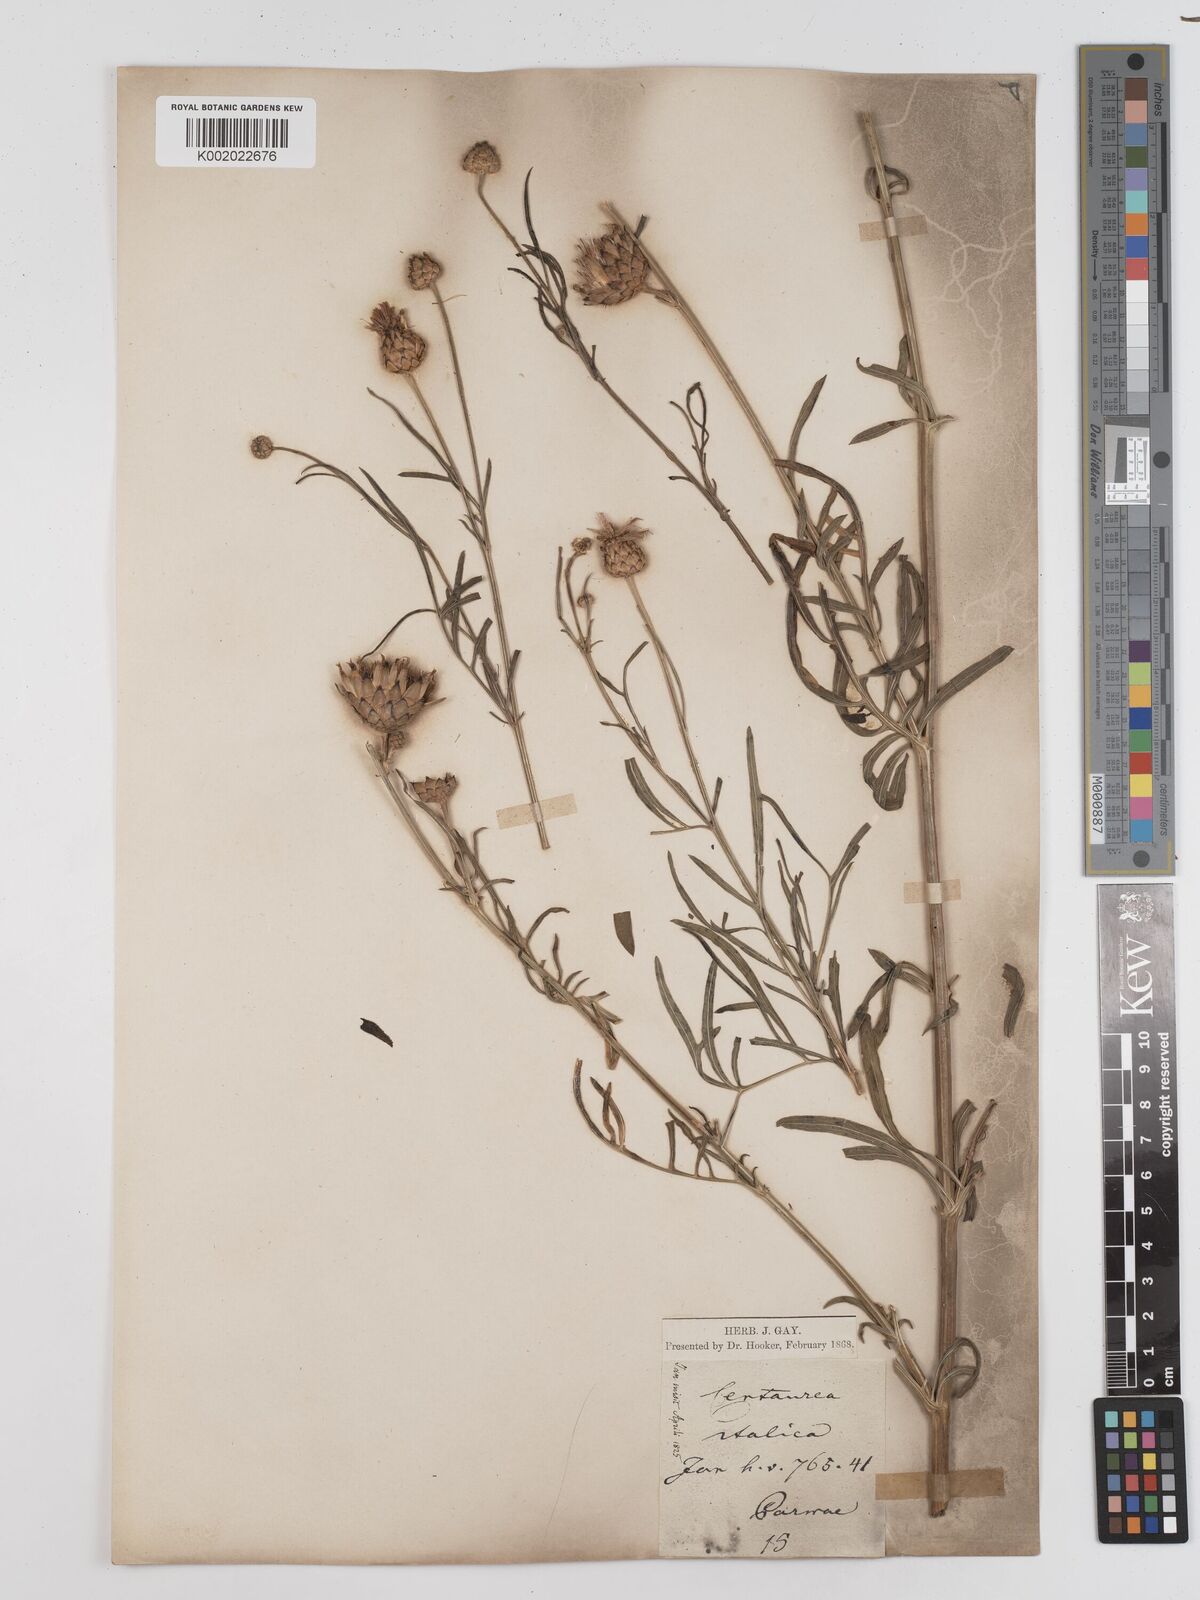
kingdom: Plantae
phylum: Tracheophyta
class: Magnoliopsida
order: Asterales
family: Asteraceae
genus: Centaurea
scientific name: Centaurea apiculata
